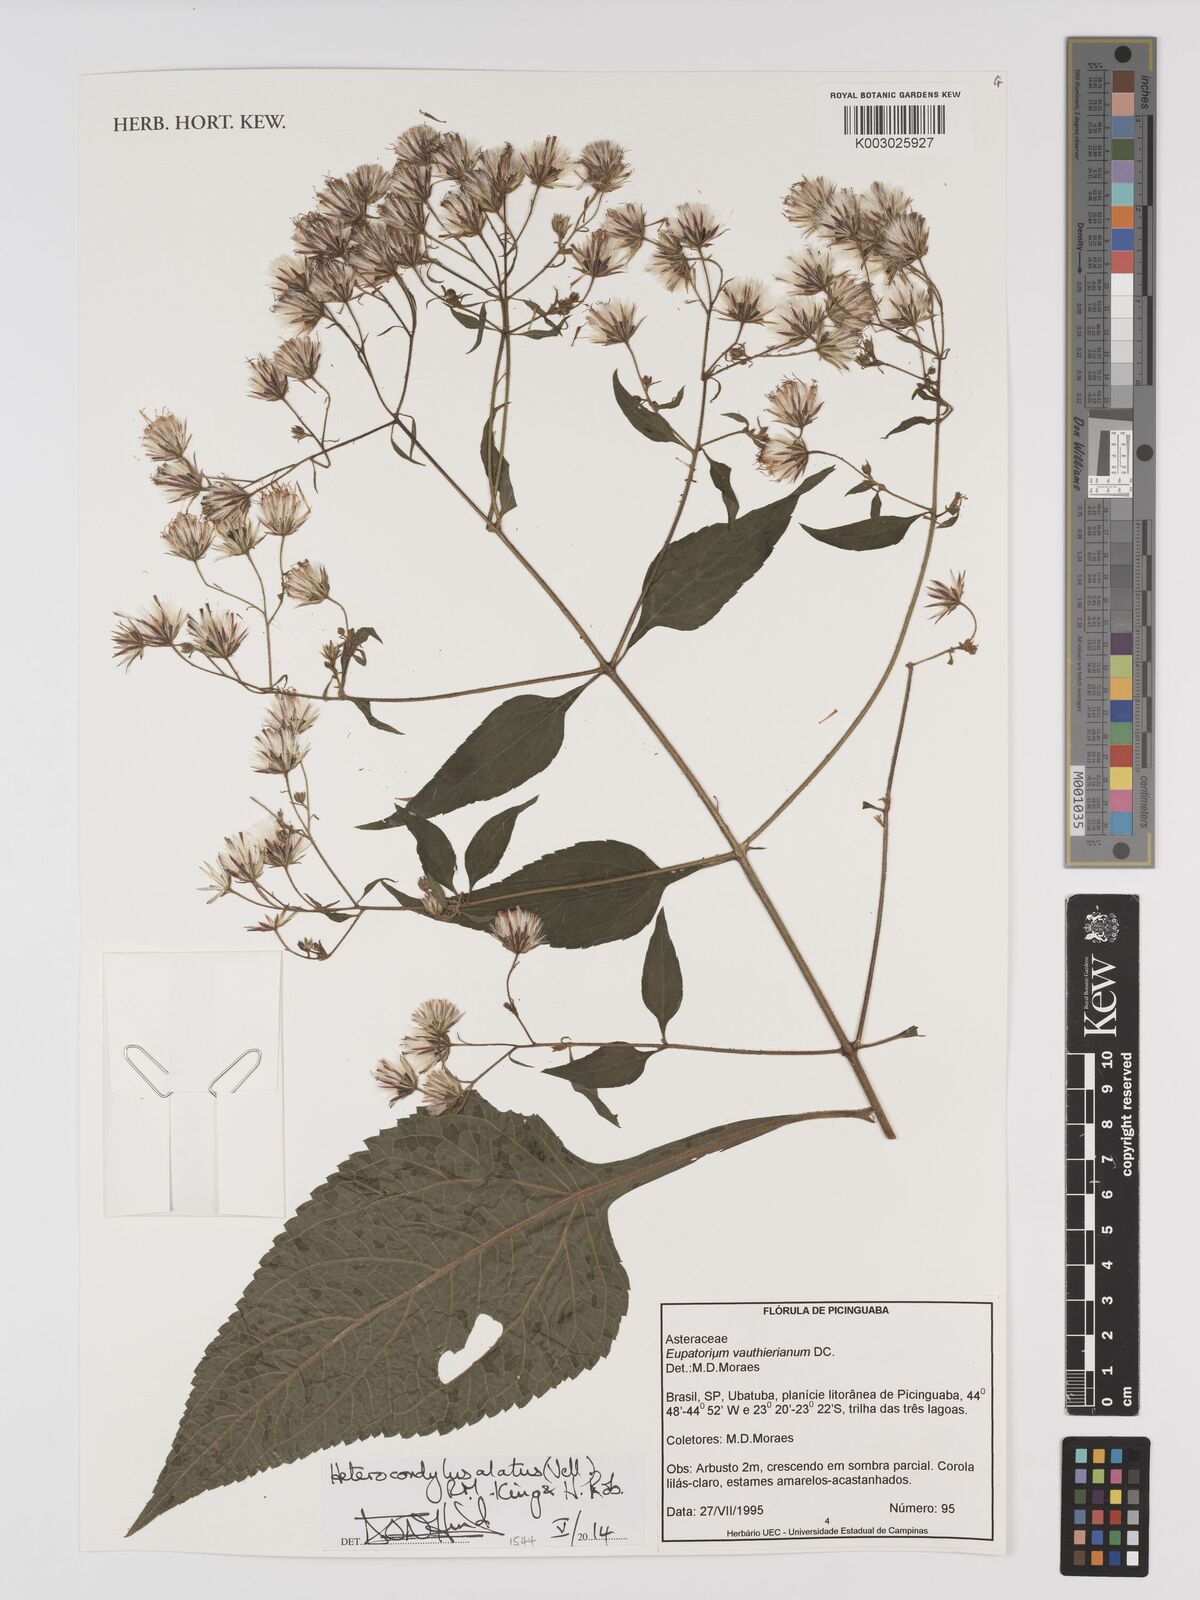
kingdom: Plantae
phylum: Tracheophyta
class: Magnoliopsida
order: Asterales
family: Asteraceae
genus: Heterocondylus
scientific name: Heterocondylus alatus
